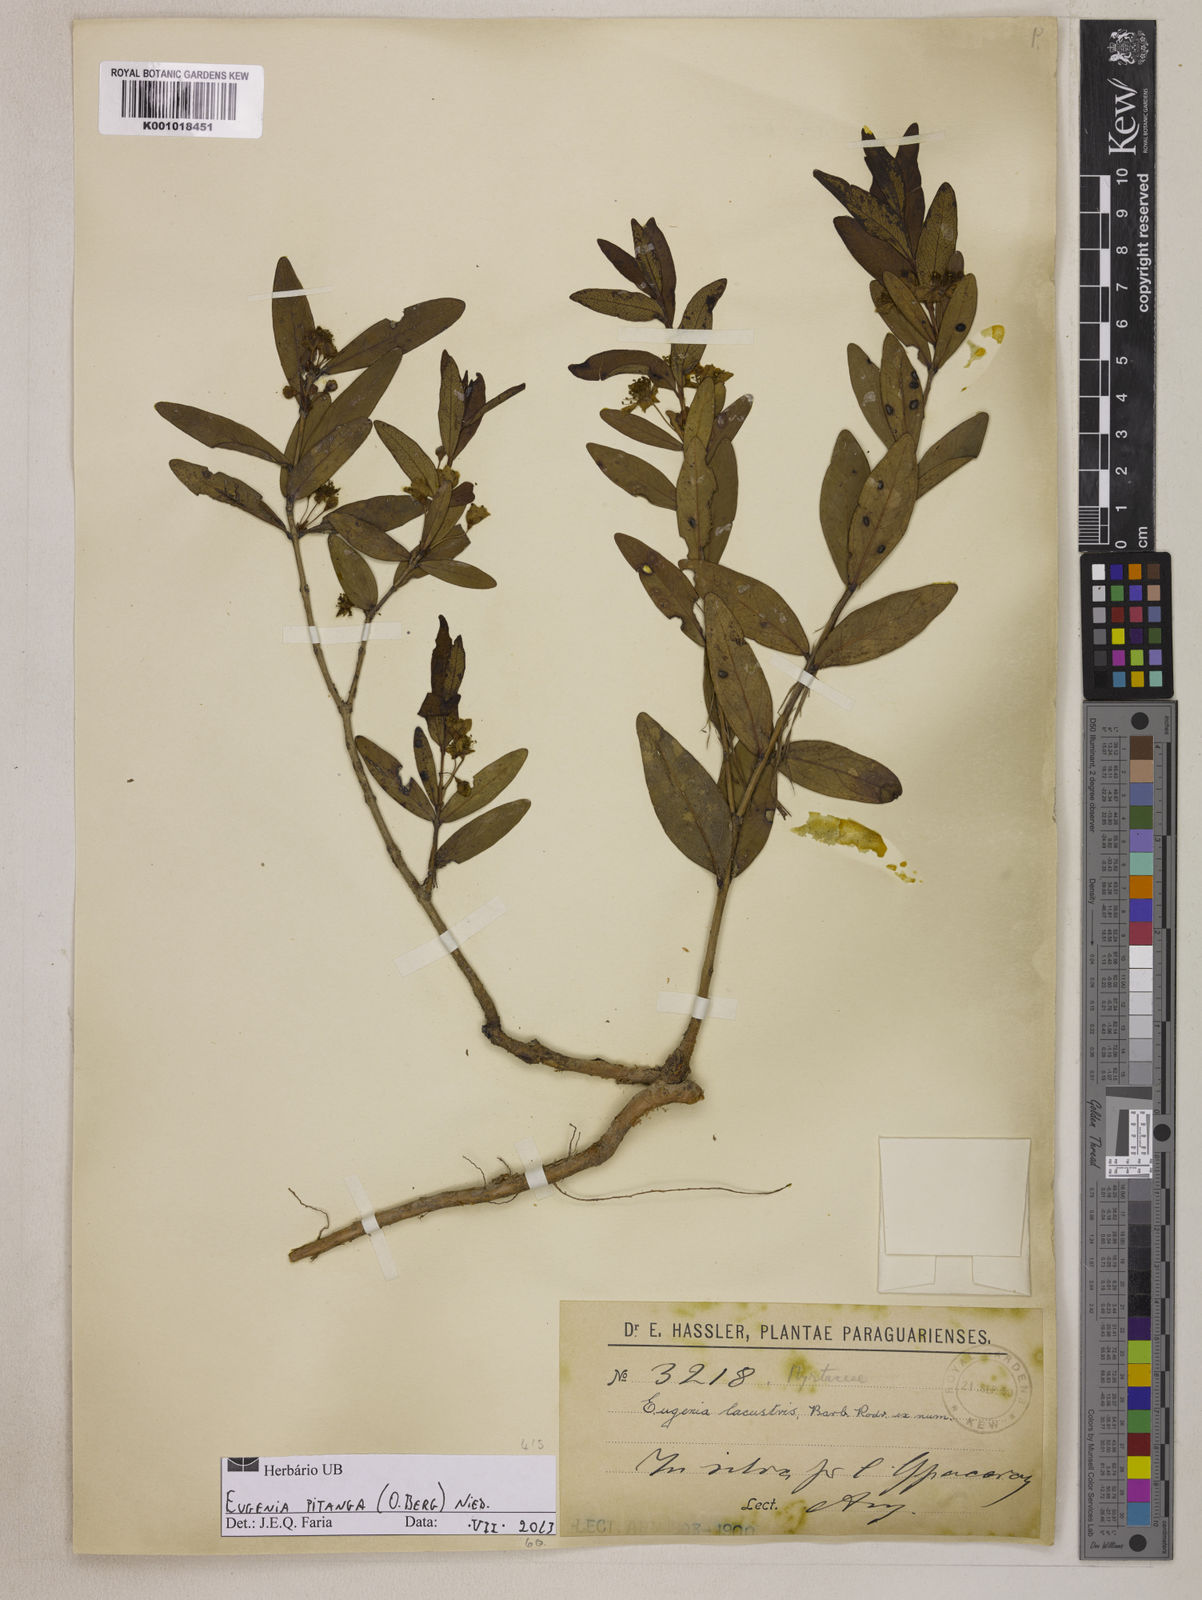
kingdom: Plantae
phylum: Tracheophyta
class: Magnoliopsida
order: Myrtales
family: Myrtaceae
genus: Eugenia
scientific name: Eugenia
